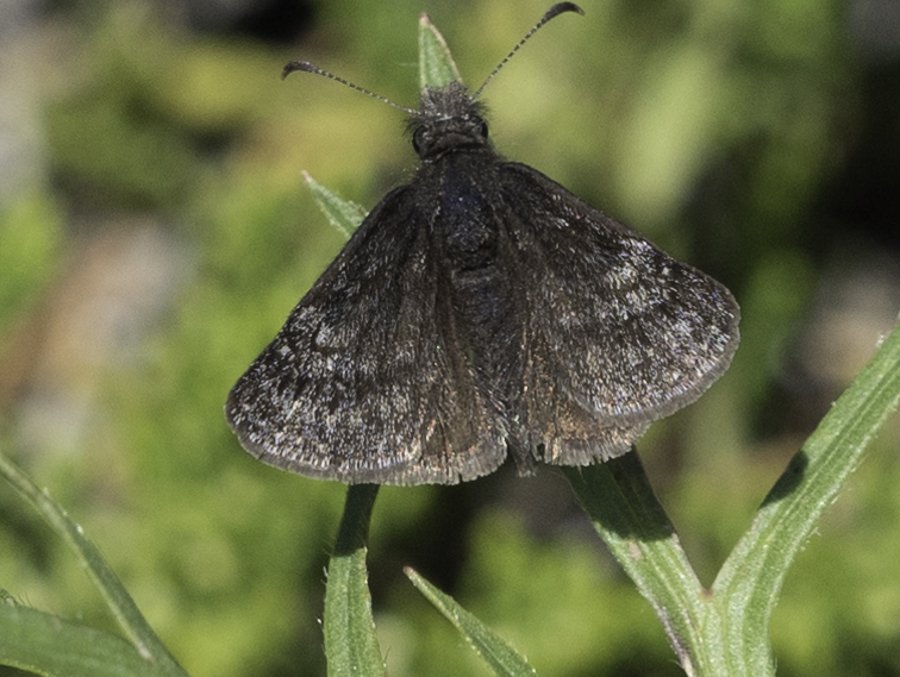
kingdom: Animalia
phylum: Arthropoda
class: Insecta
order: Lepidoptera
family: Hesperiidae
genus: Erynnis
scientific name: Erynnis icelus
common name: Dreamy Duskywing
